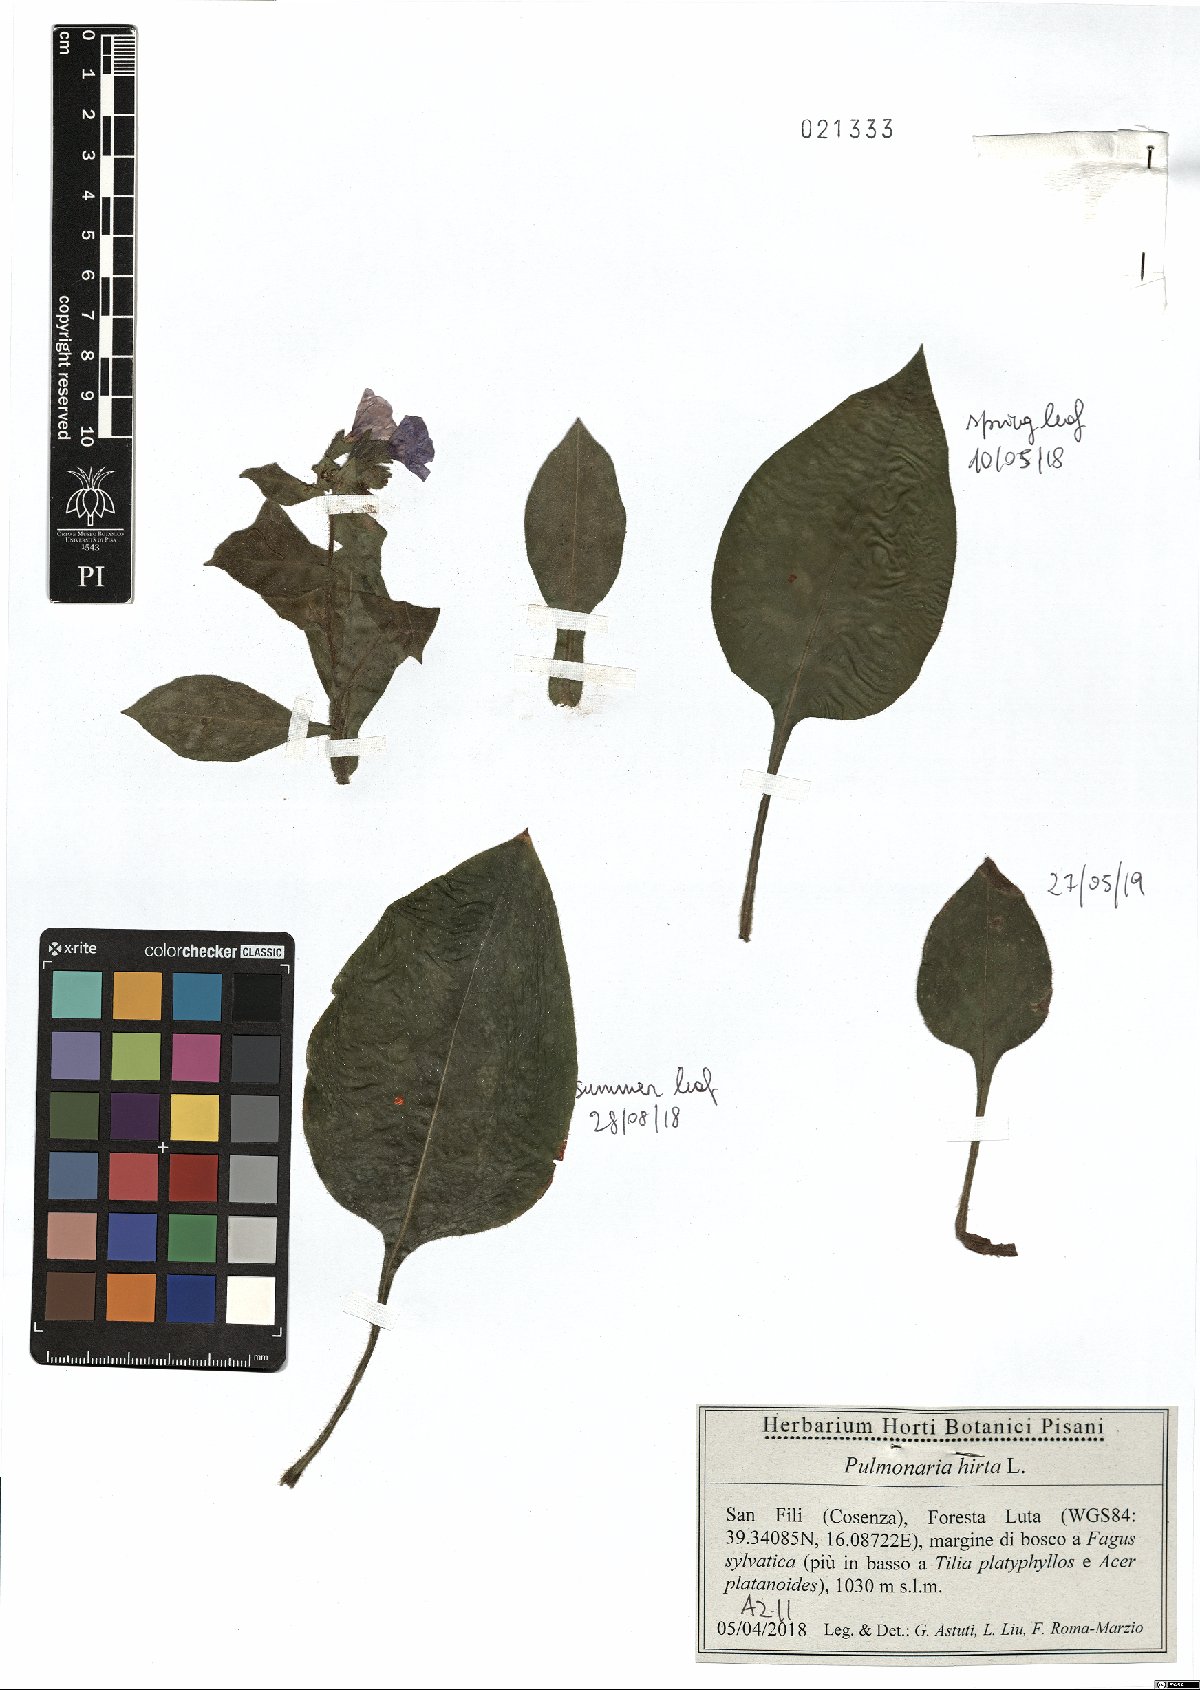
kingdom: Plantae
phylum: Tracheophyta
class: Magnoliopsida
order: Boraginales
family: Boraginaceae
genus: Pulmonaria
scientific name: Pulmonaria hirta
